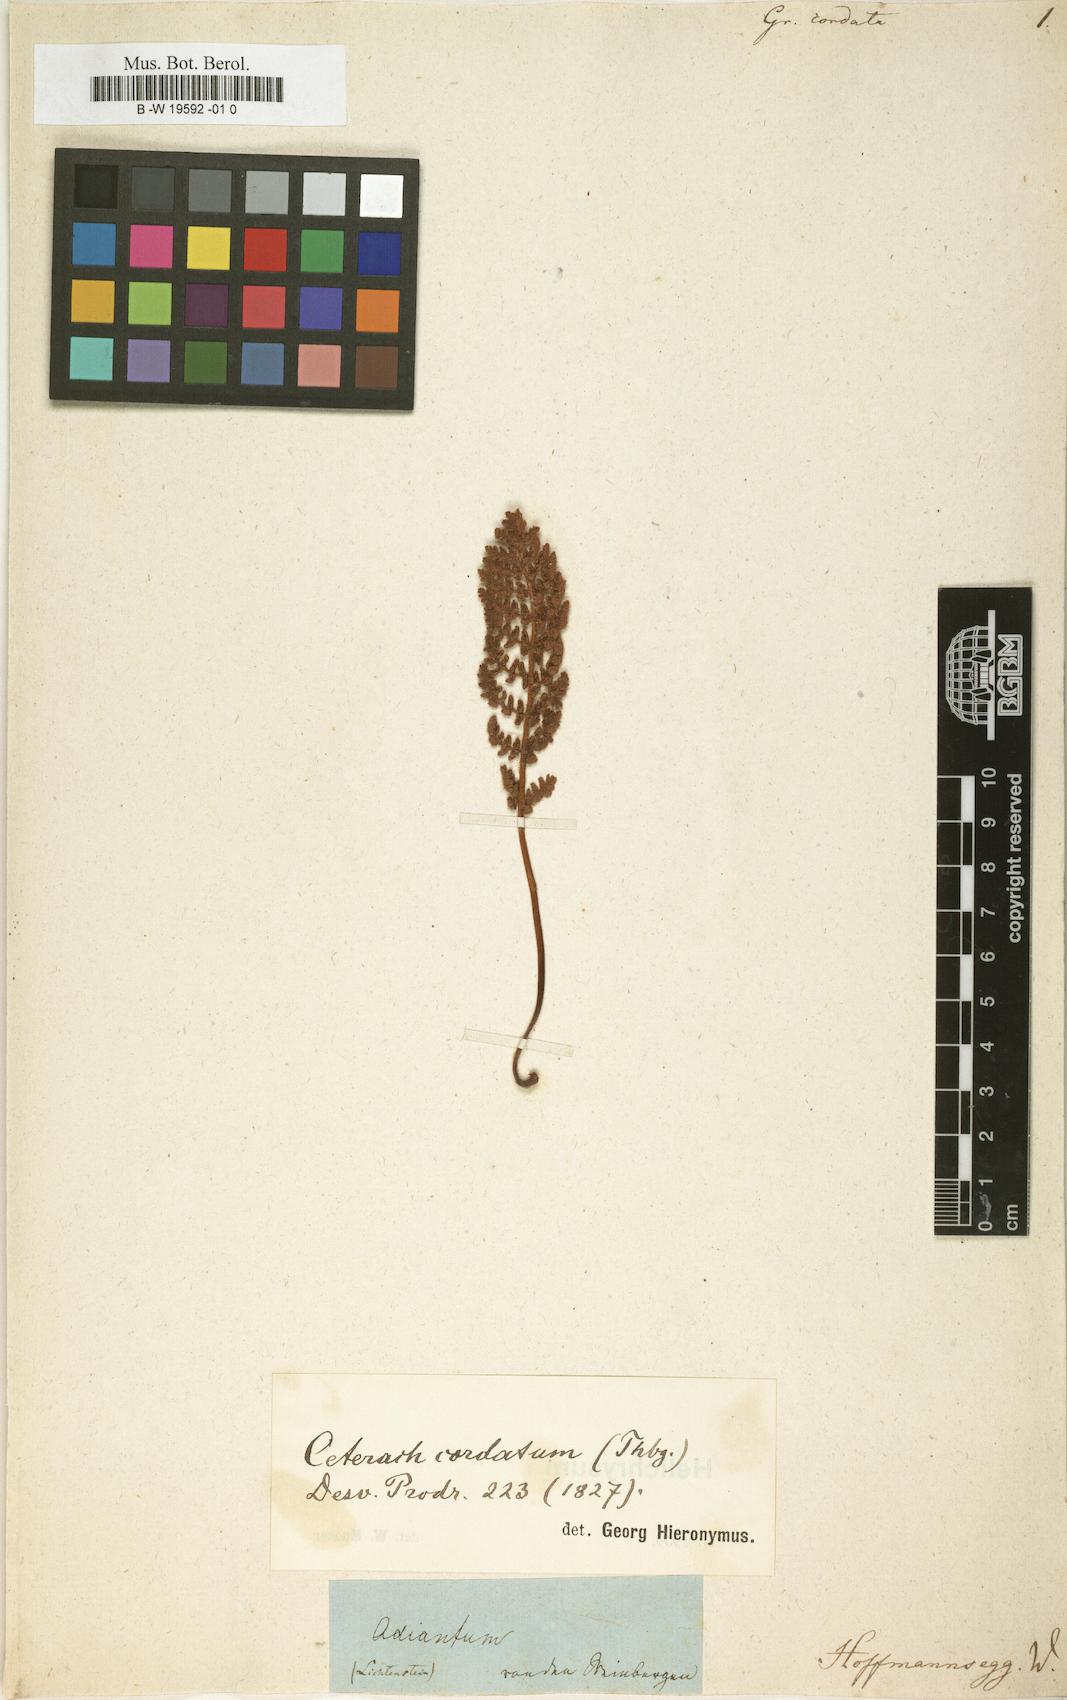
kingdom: Plantae
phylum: Tracheophyta
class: Polypodiopsida
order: Polypodiales
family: Polypodiaceae
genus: Enterosora
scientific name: Enterosora cornuta
